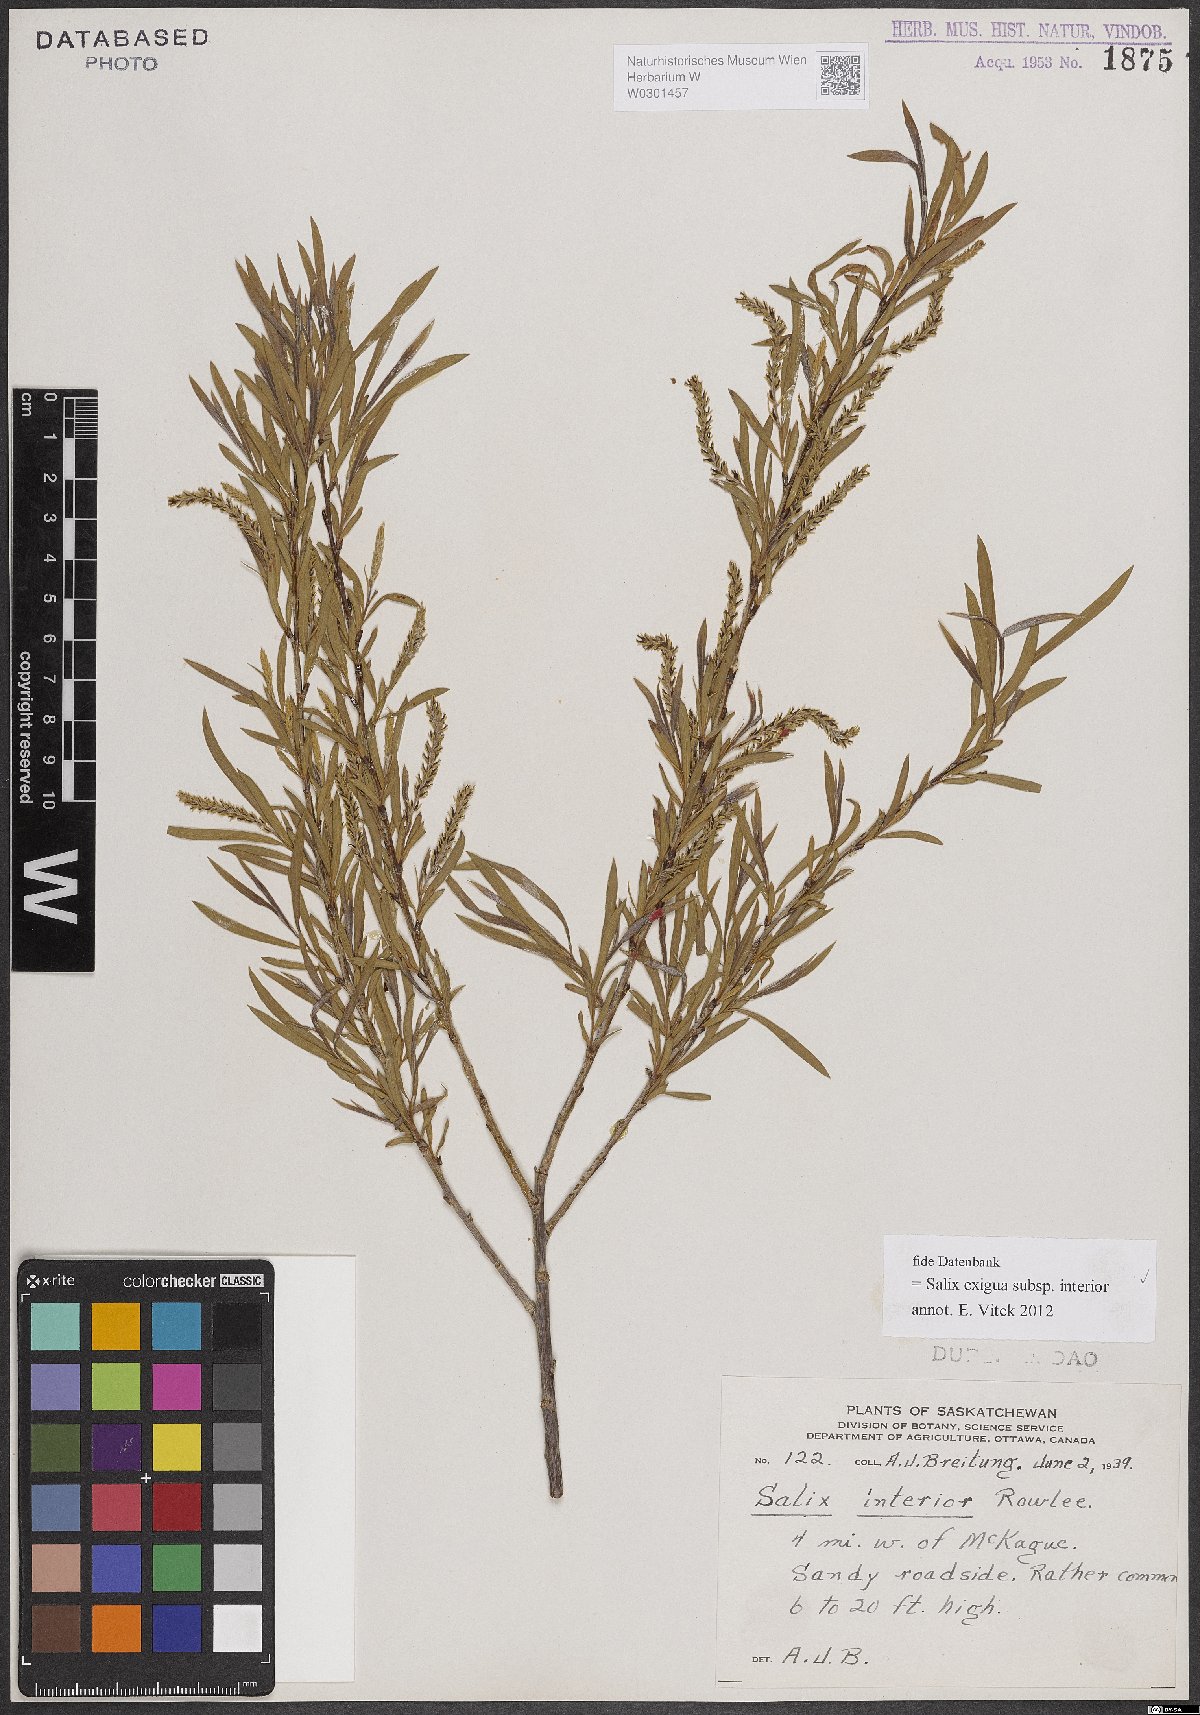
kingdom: Plantae
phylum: Tracheophyta
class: Magnoliopsida
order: Malpighiales
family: Salicaceae
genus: Salix
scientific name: Salix interior
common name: Sandbar willow
